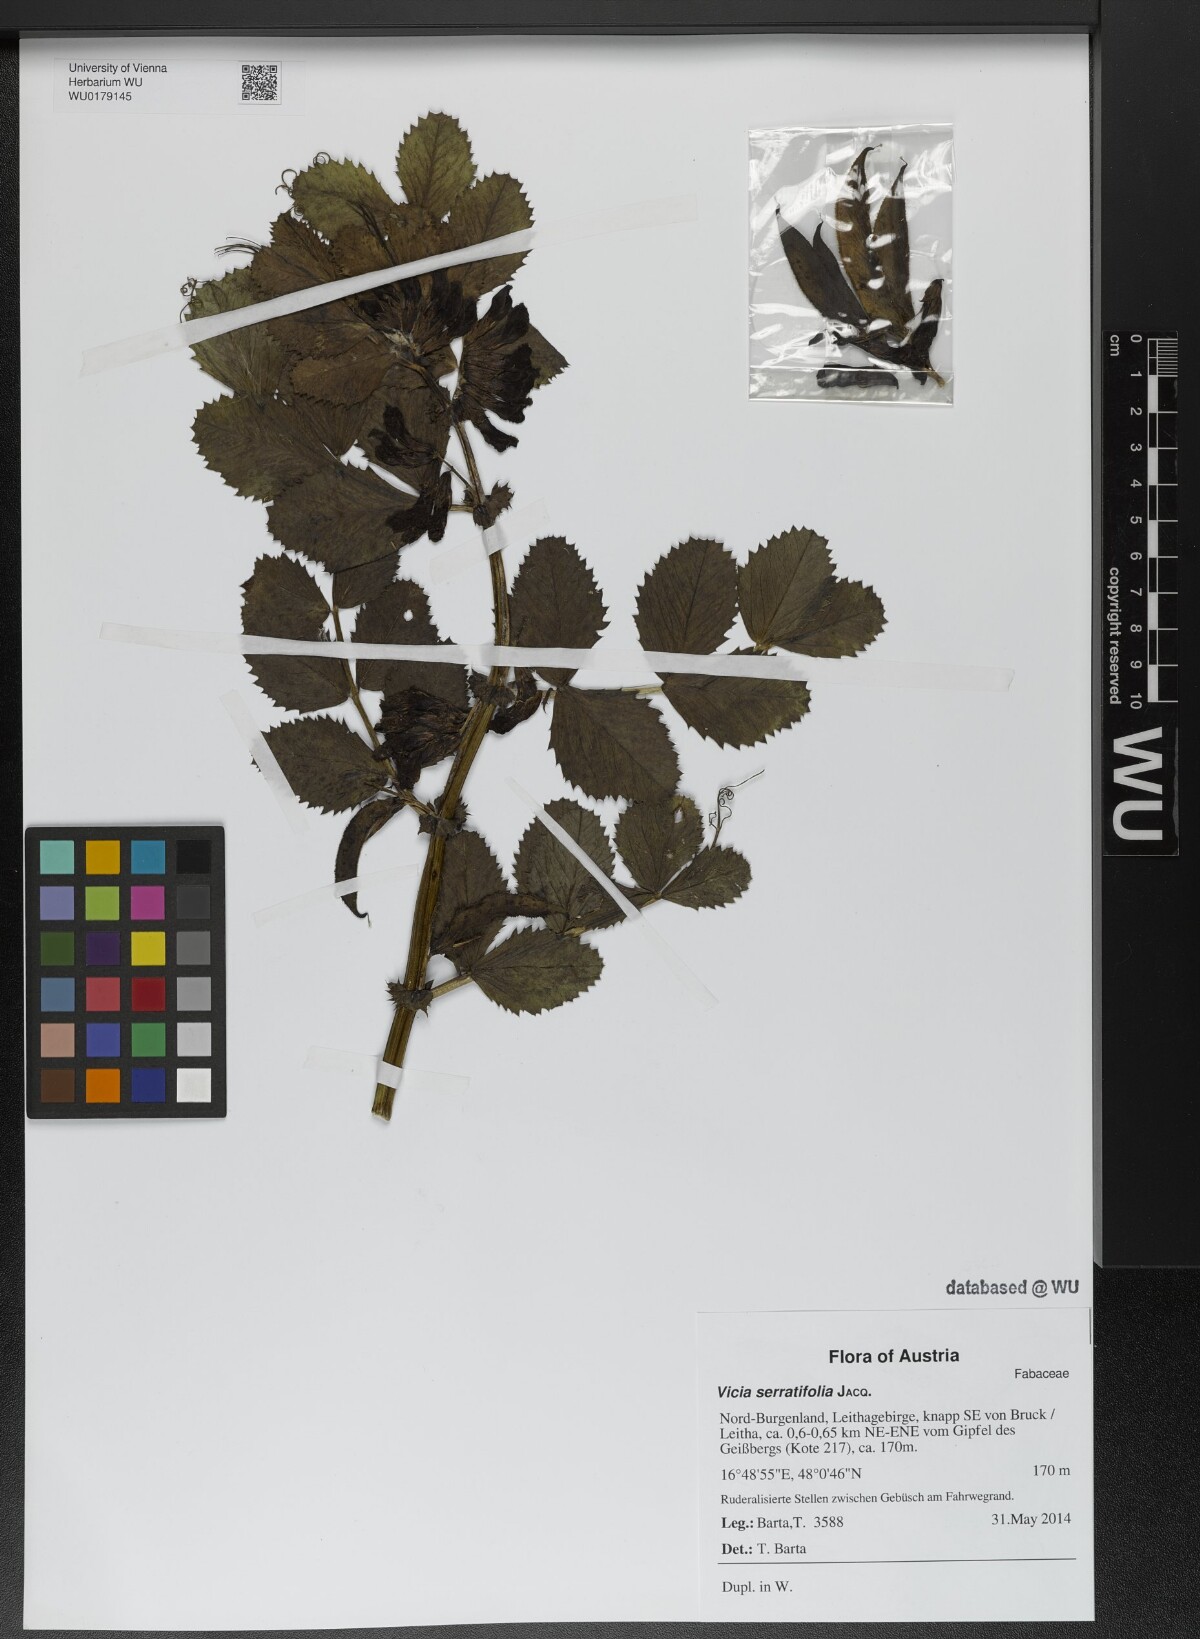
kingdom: Plantae
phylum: Tracheophyta
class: Magnoliopsida
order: Fabales
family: Fabaceae
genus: Vicia
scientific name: Vicia serratifolia
